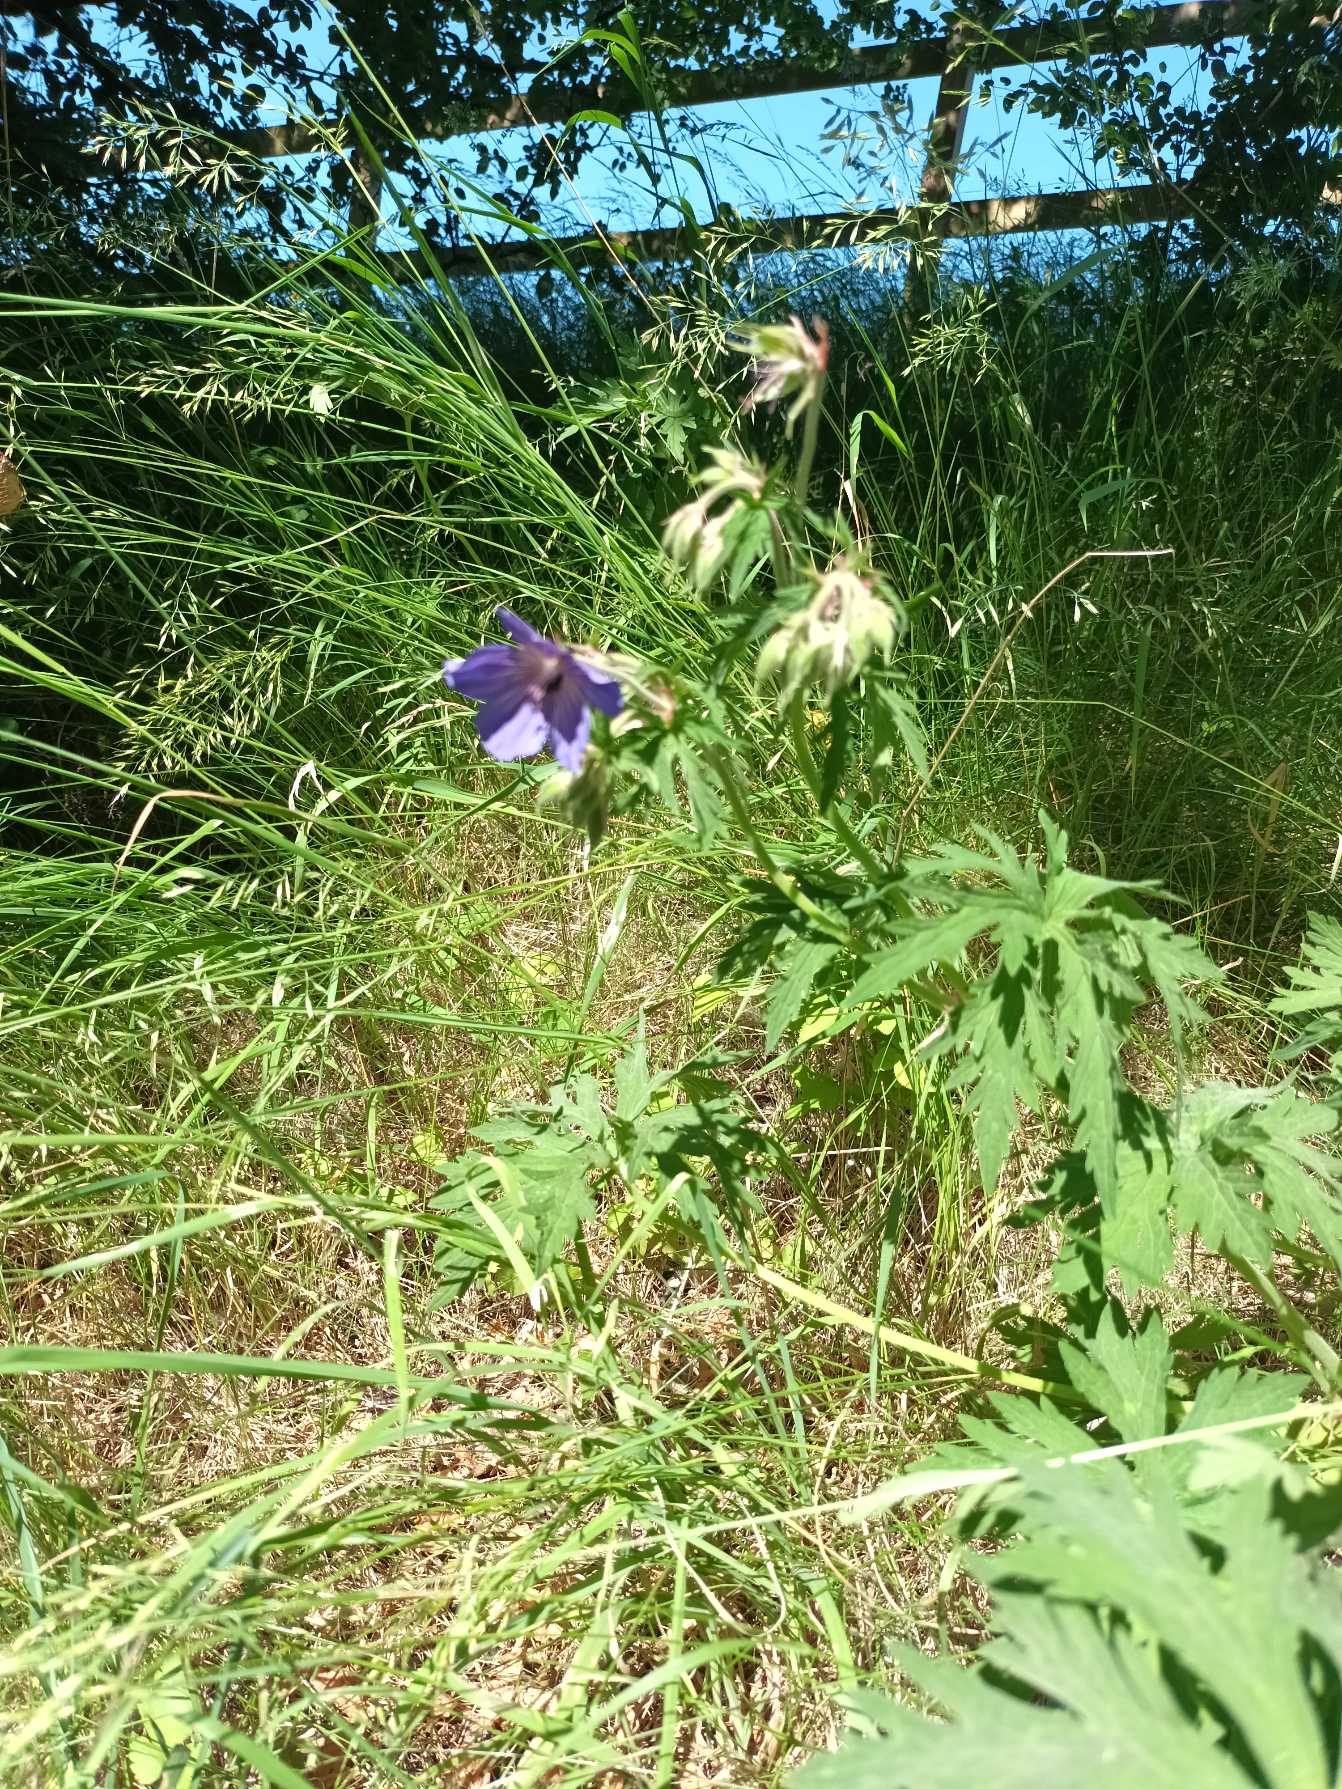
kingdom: Plantae
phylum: Tracheophyta
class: Magnoliopsida
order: Geraniales
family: Geraniaceae
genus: Geranium
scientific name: Geranium pratense
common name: Eng-storkenæb
